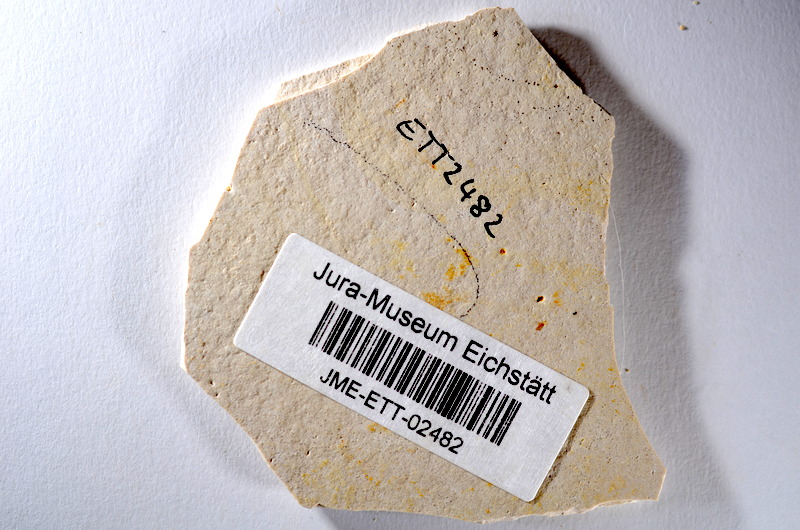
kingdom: Animalia
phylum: Chordata
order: Salmoniformes
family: Orthogonikleithridae
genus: Orthogonikleithrus
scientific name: Orthogonikleithrus hoelli
